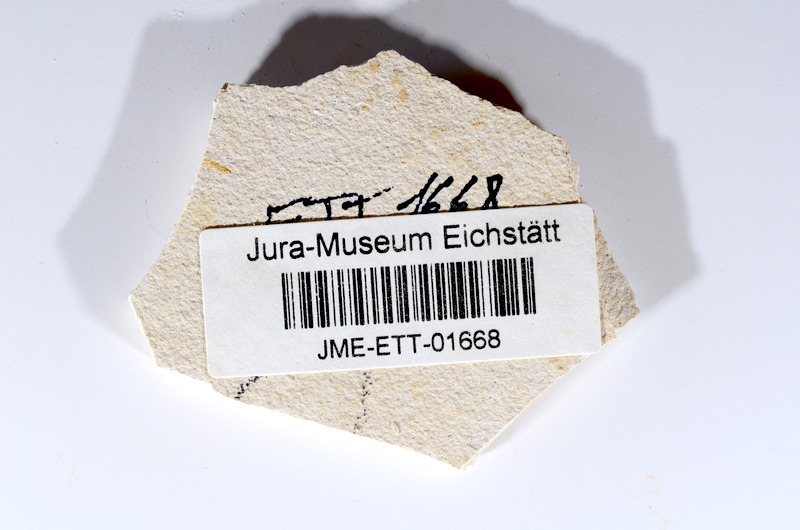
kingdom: Animalia
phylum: Chordata
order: Salmoniformes
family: Orthogonikleithridae
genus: Orthogonikleithrus
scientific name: Orthogonikleithrus hoelli
